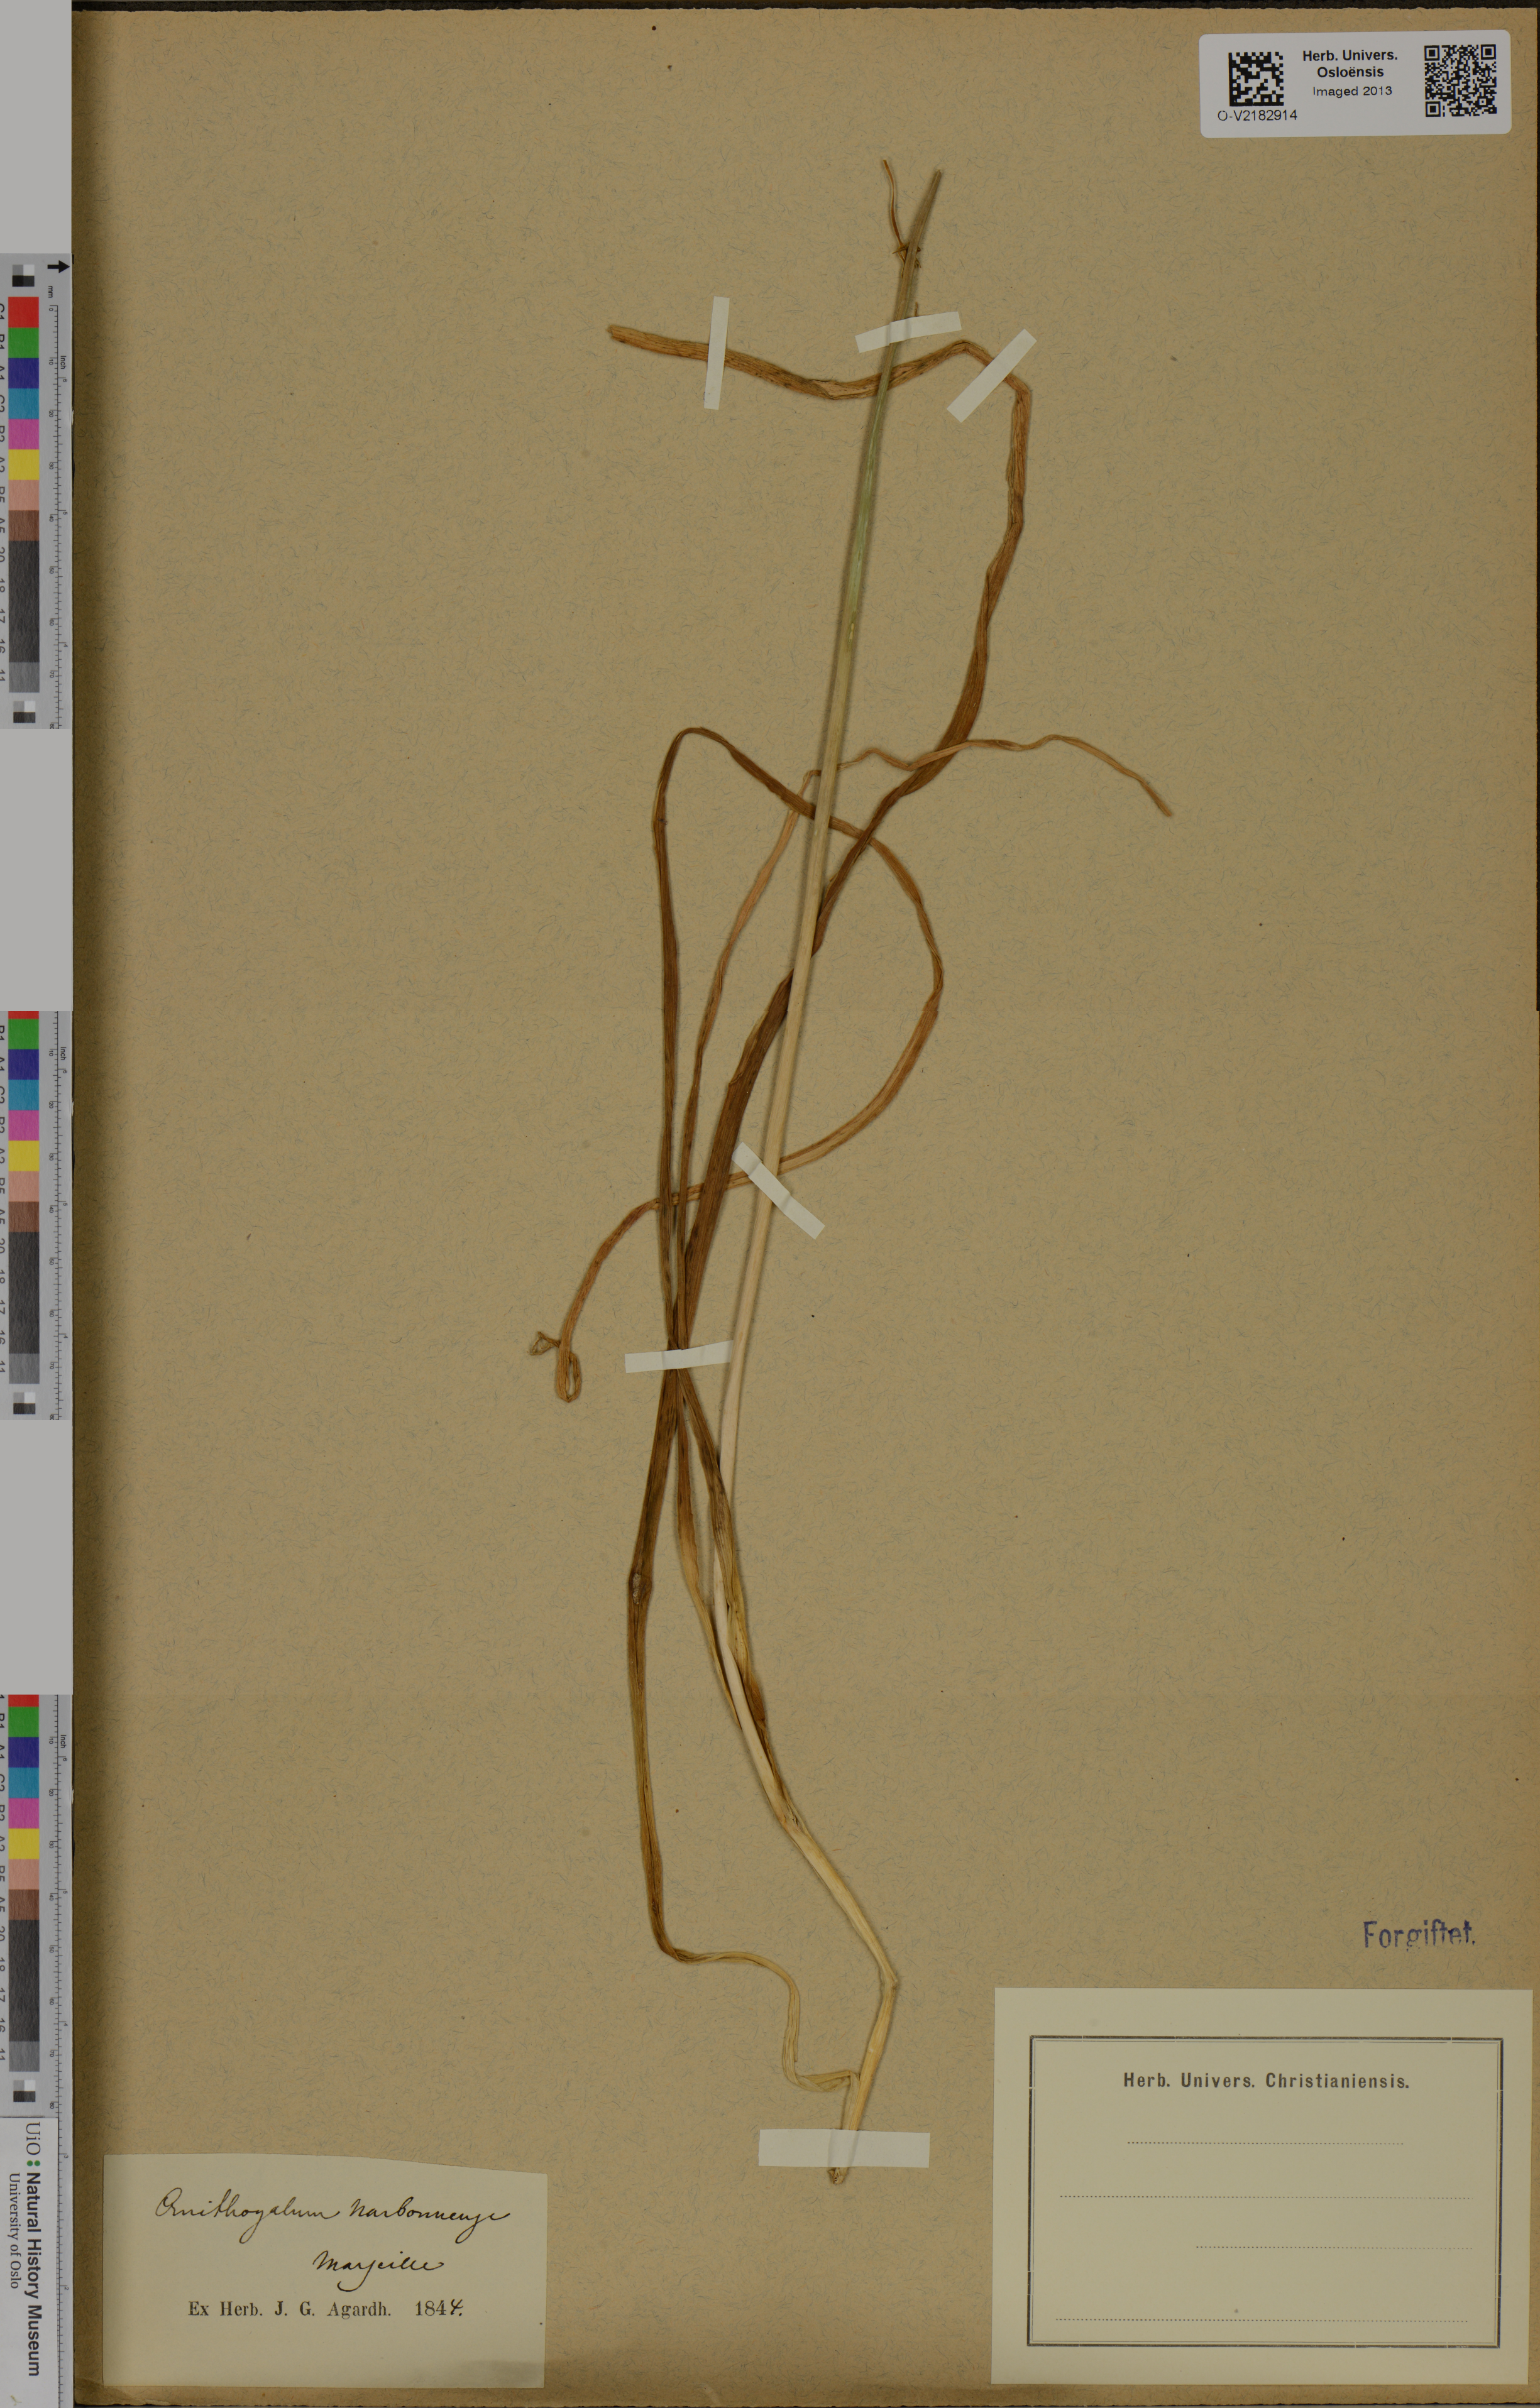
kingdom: Plantae
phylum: Tracheophyta
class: Liliopsida
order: Asparagales
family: Asparagaceae
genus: Ornithogalum
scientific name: Ornithogalum narbonense
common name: Bath-asparagus
